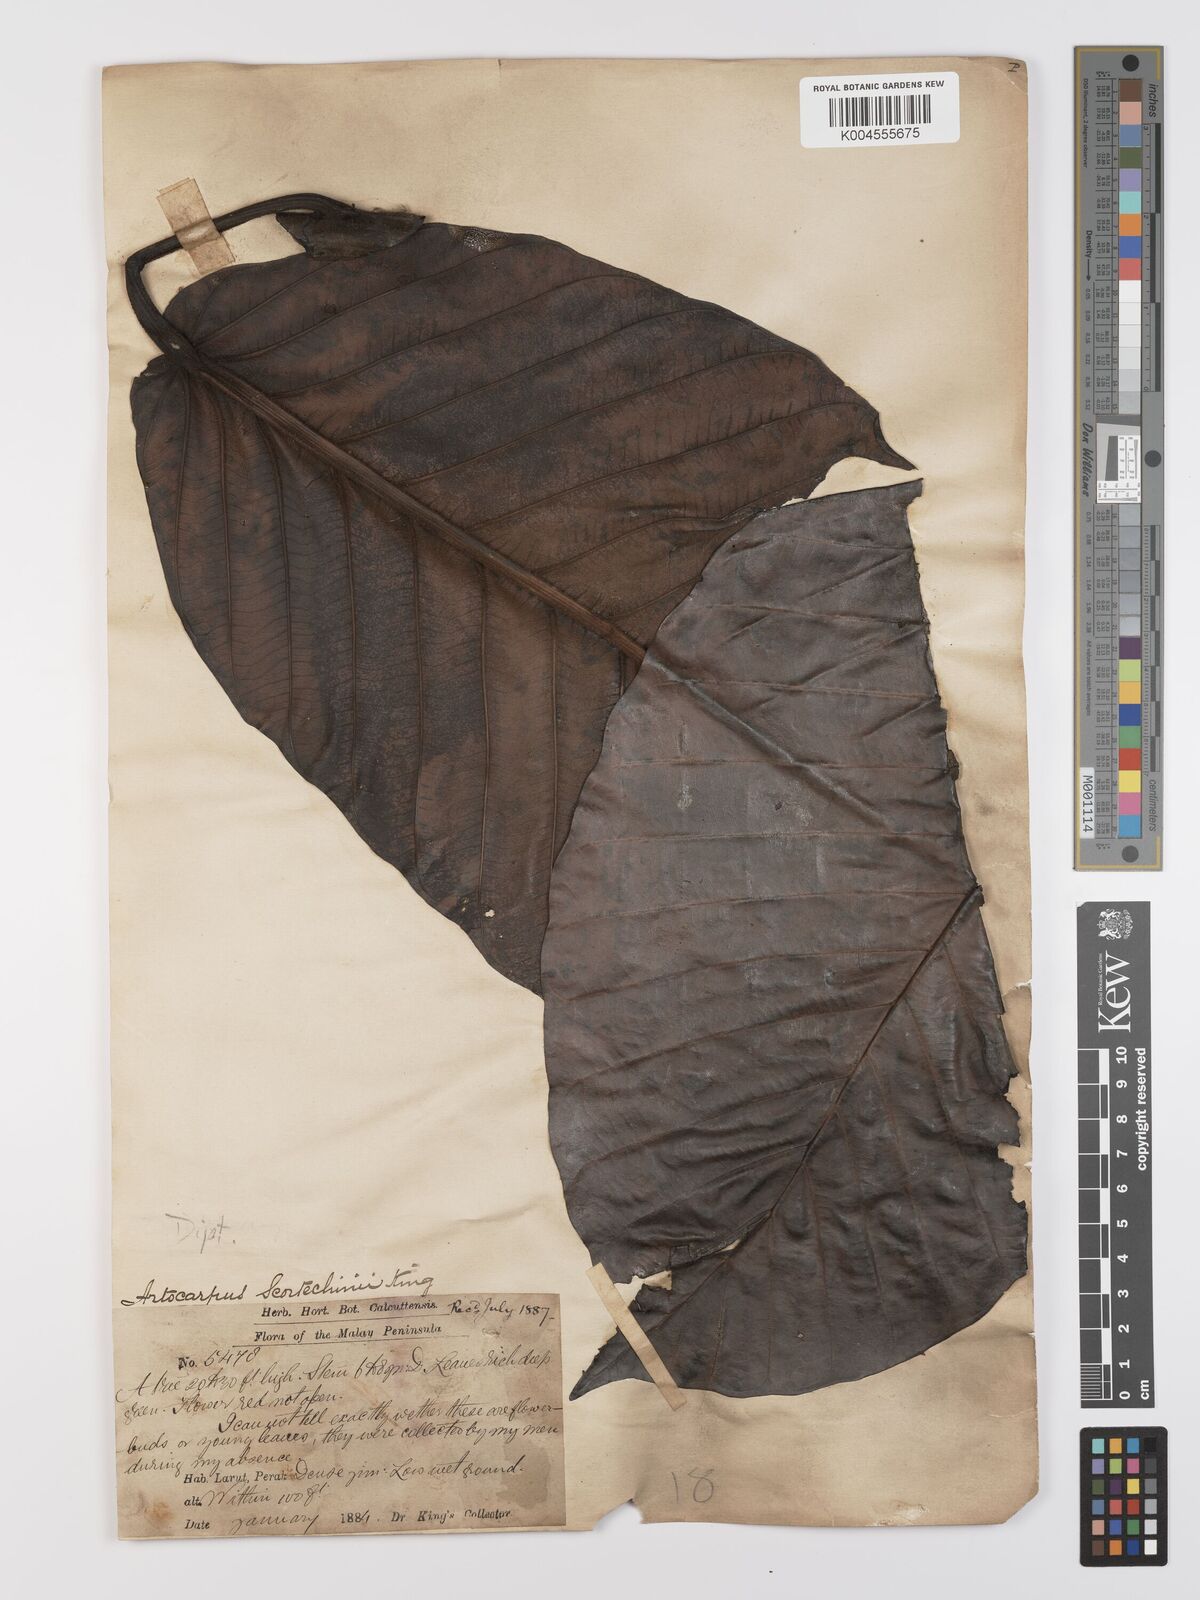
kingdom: Plantae
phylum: Tracheophyta
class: Magnoliopsida
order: Rosales
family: Moraceae
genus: Artocarpus
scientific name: Artocarpus elasticus
